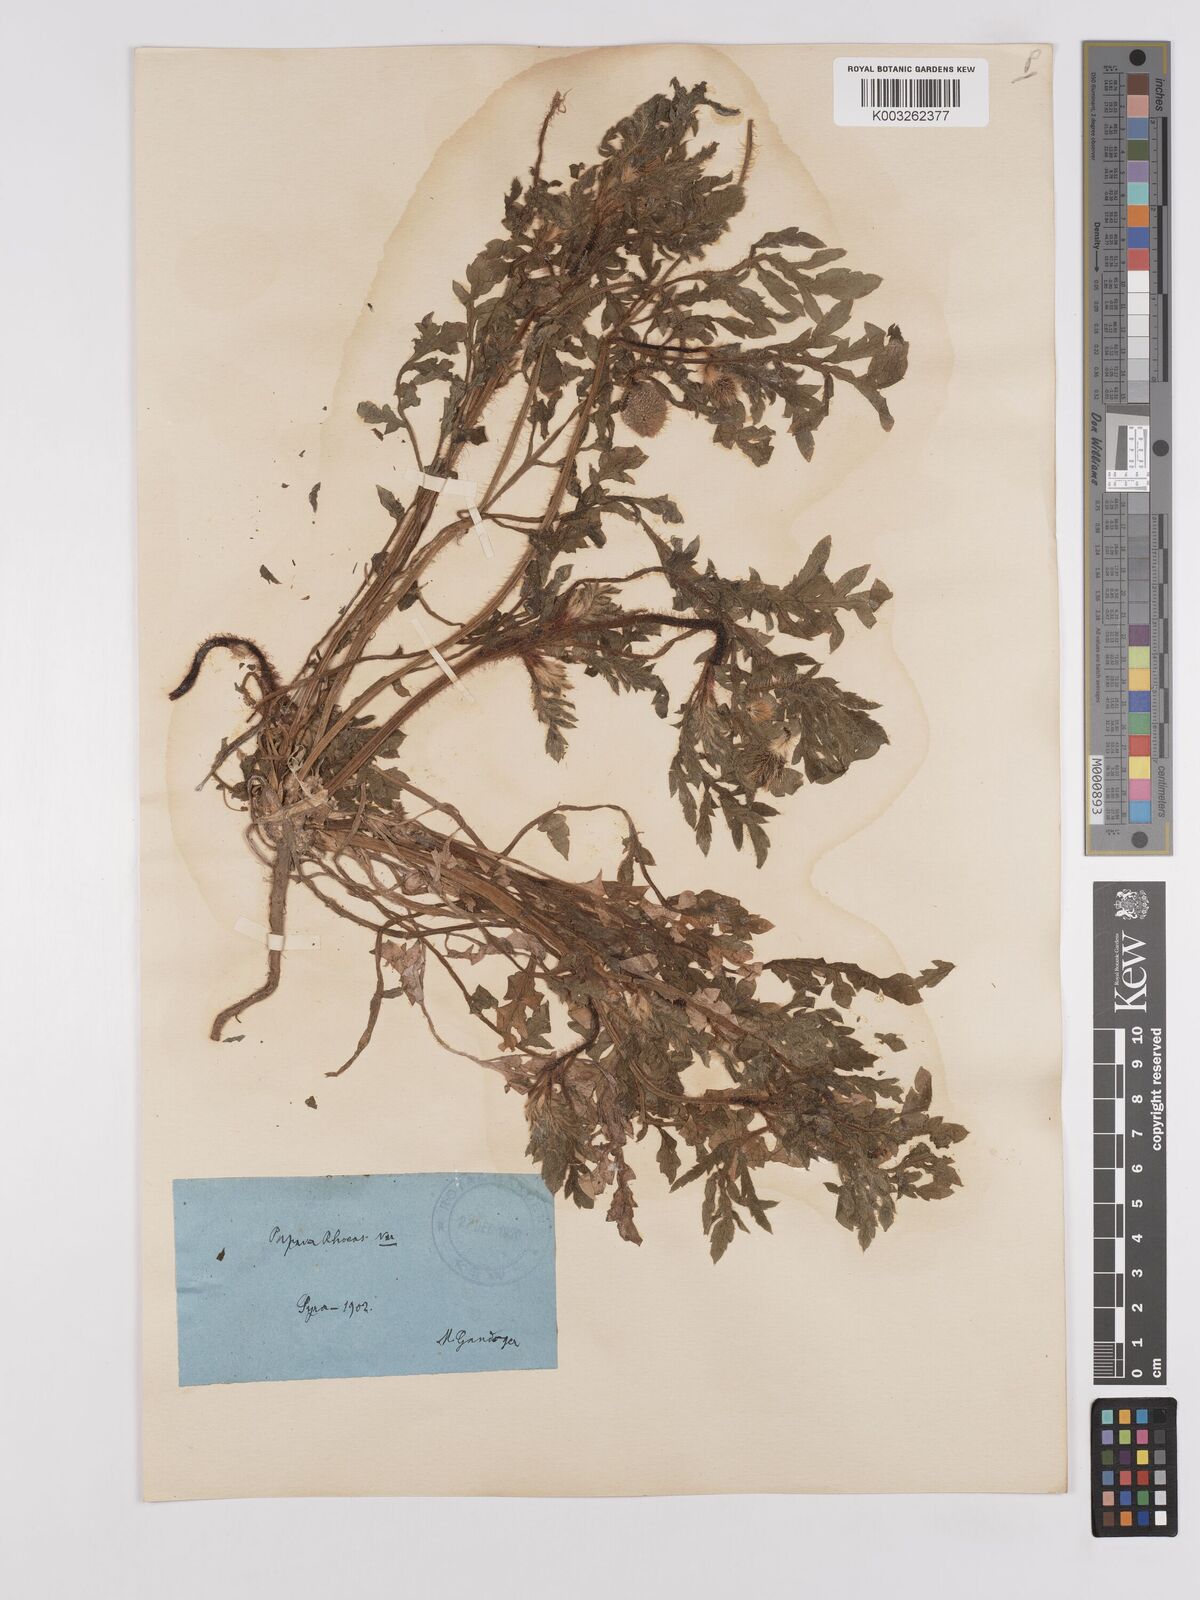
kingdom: Plantae
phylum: Tracheophyta
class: Magnoliopsida
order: Ranunculales
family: Papaveraceae
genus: Papaver
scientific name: Papaver rhoeas
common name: Corn poppy
